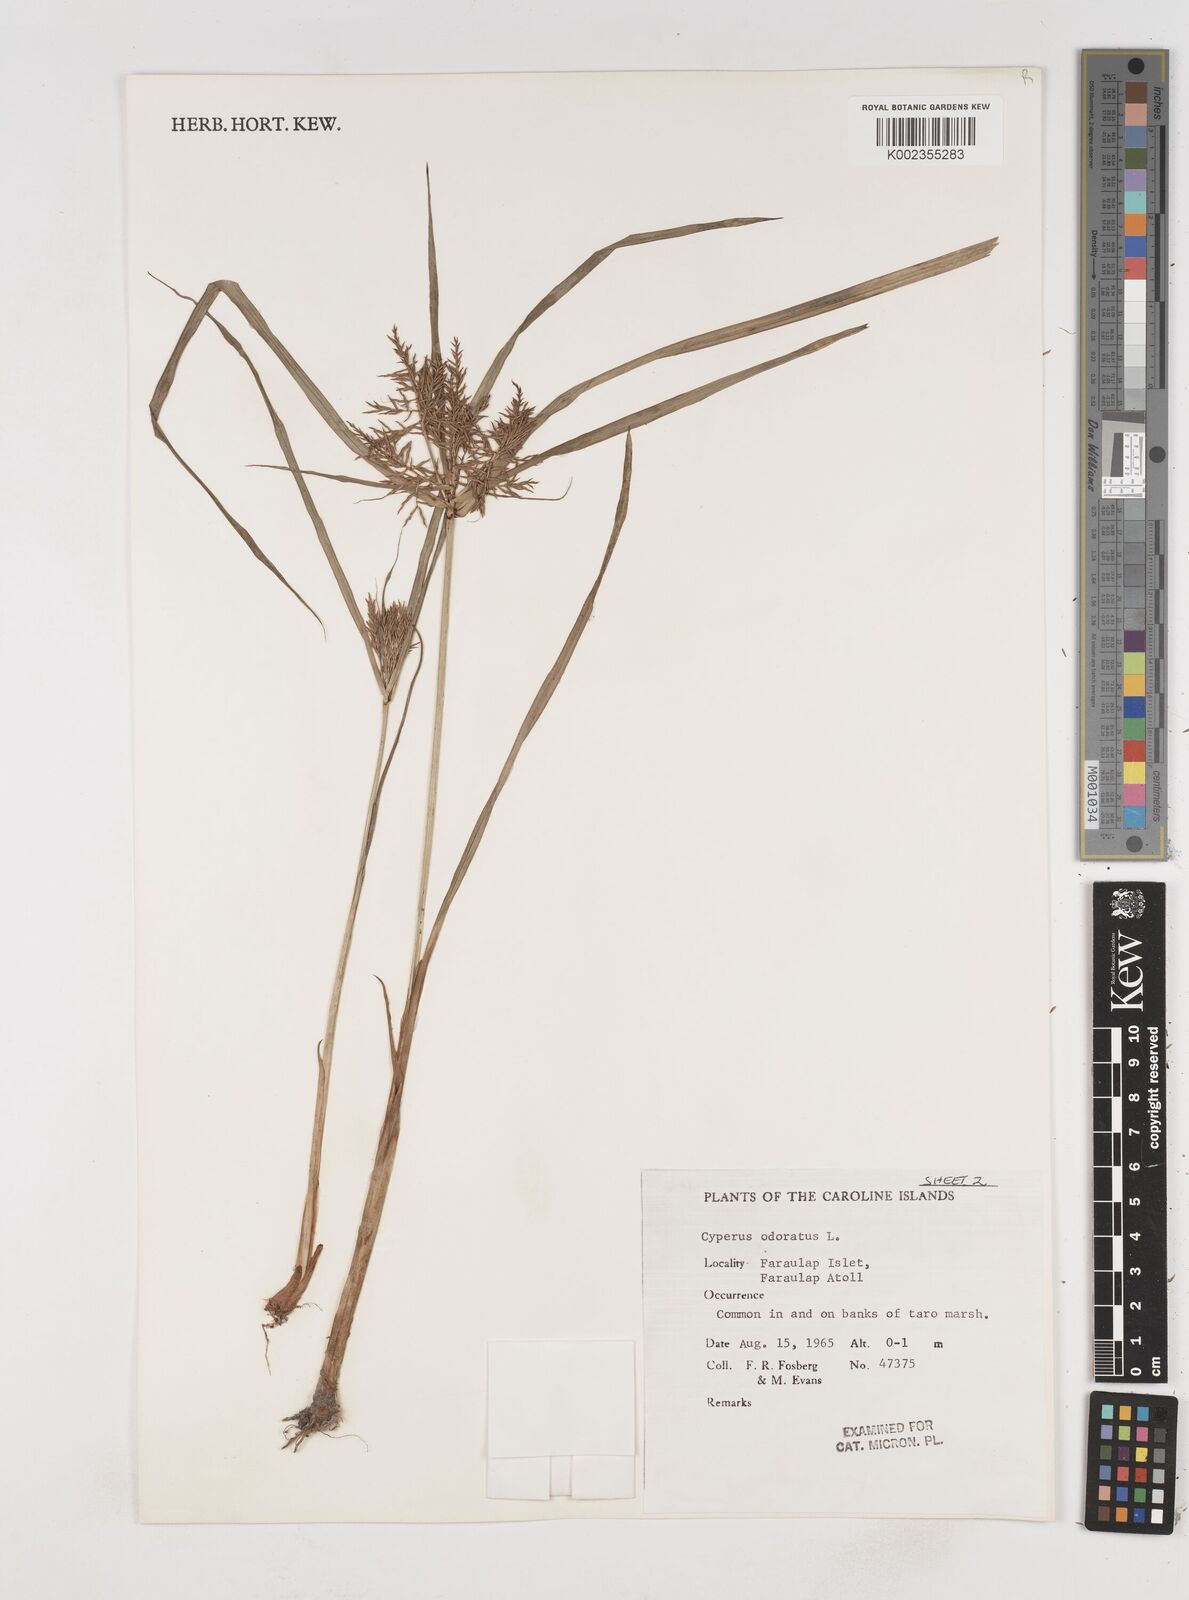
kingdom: Plantae
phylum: Tracheophyta
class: Liliopsida
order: Poales
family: Cyperaceae
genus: Cyperus
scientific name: Cyperus odoratus
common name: Fragrant flatsedge
